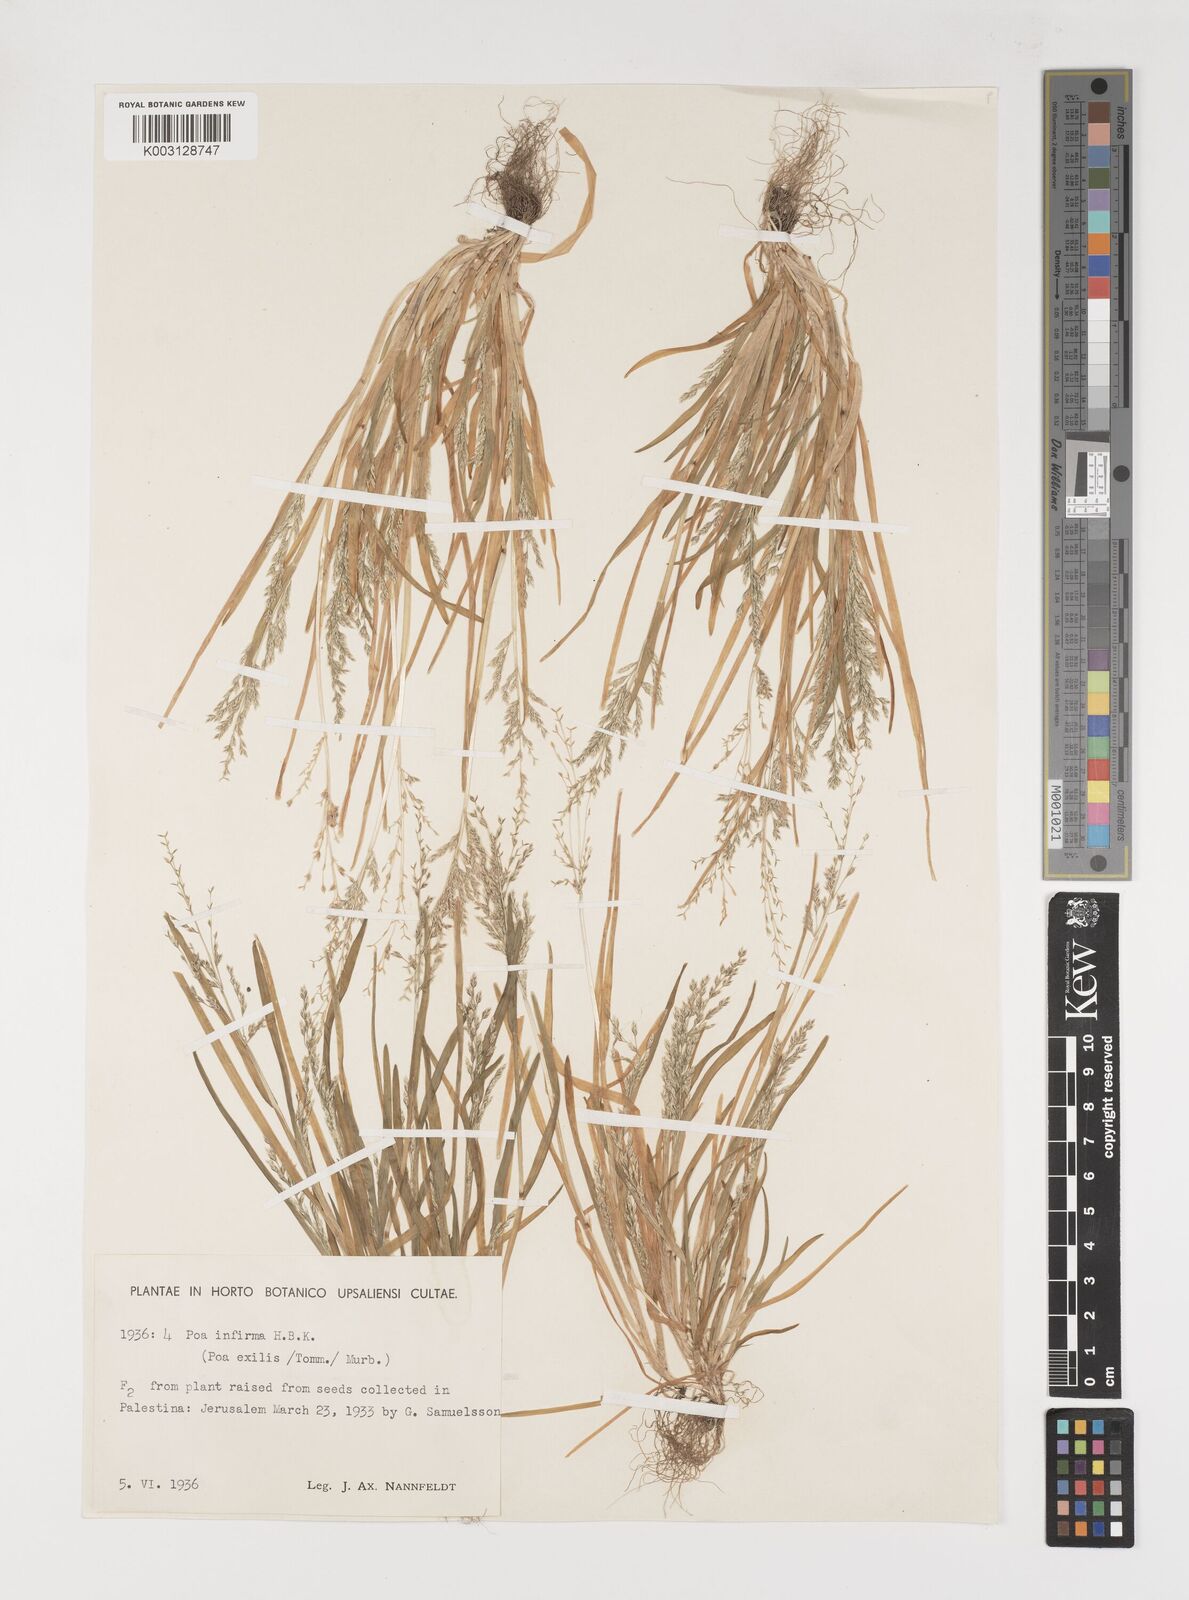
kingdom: Plantae
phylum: Tracheophyta
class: Liliopsida
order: Poales
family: Poaceae
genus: Poa
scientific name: Poa infirma
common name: Weak bluegrass
